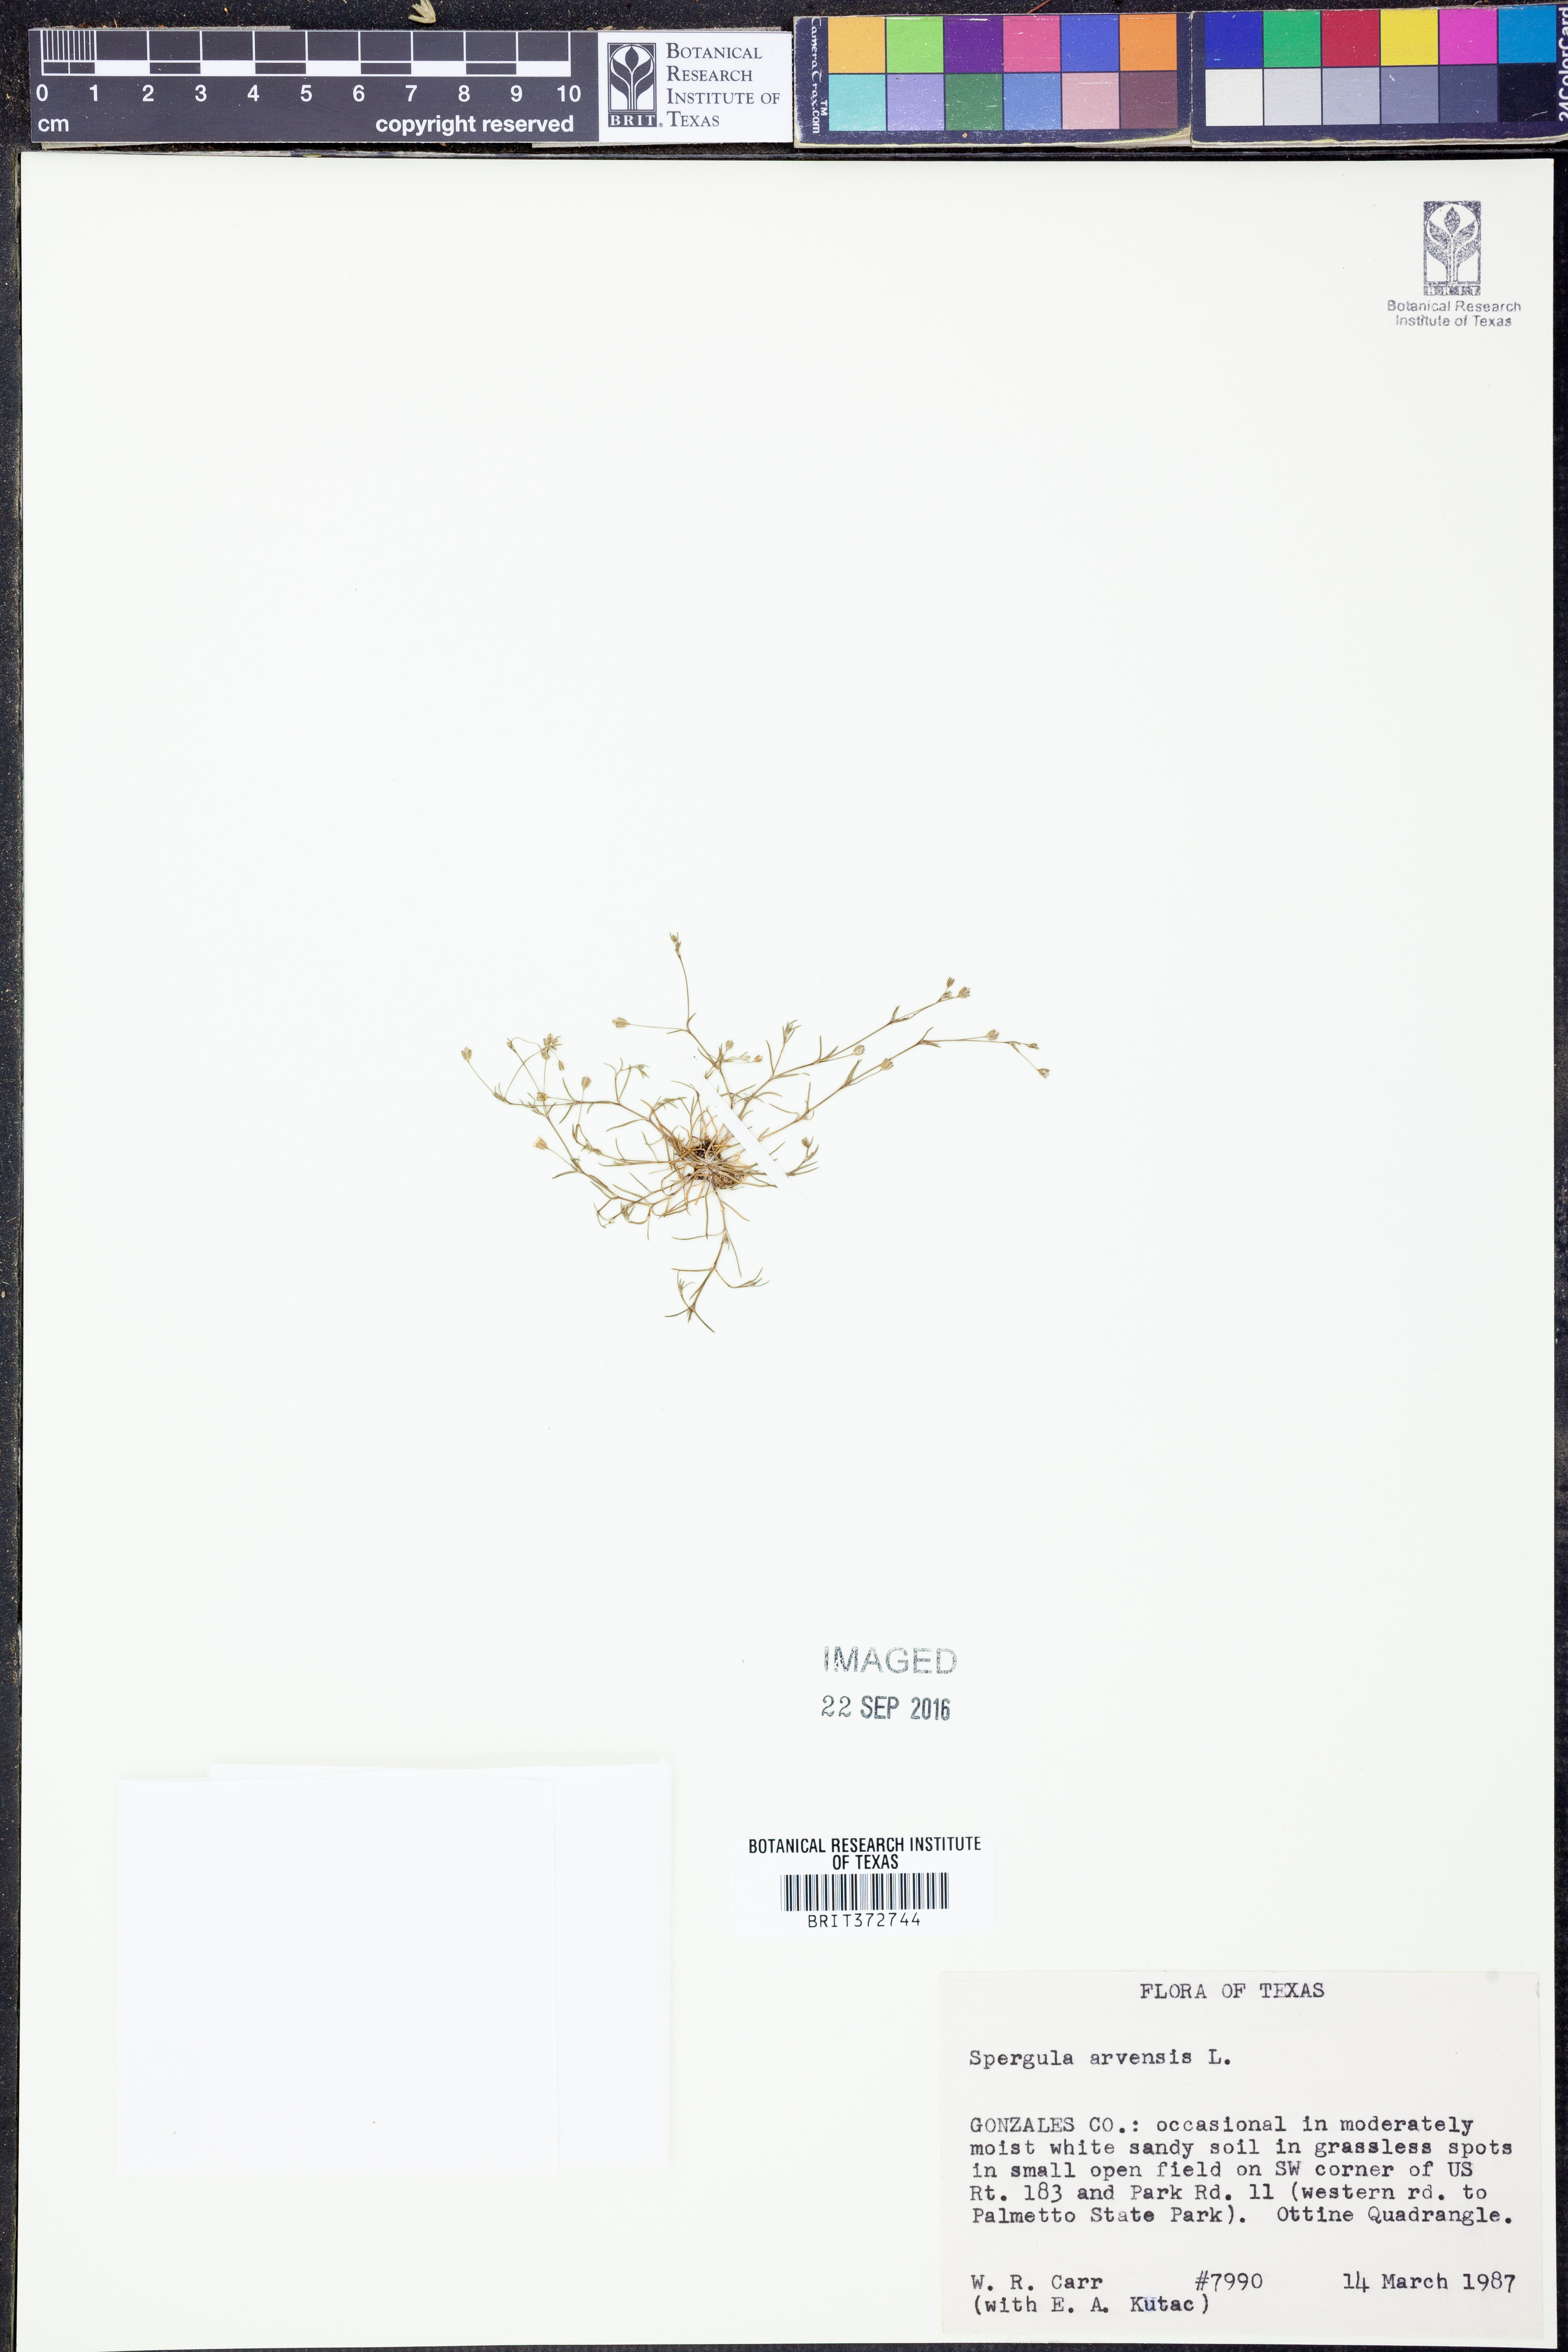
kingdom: Plantae
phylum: Tracheophyta
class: Magnoliopsida
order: Caryophyllales
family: Caryophyllaceae
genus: Spergula
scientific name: Spergula arvensis
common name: Corn spurrey
